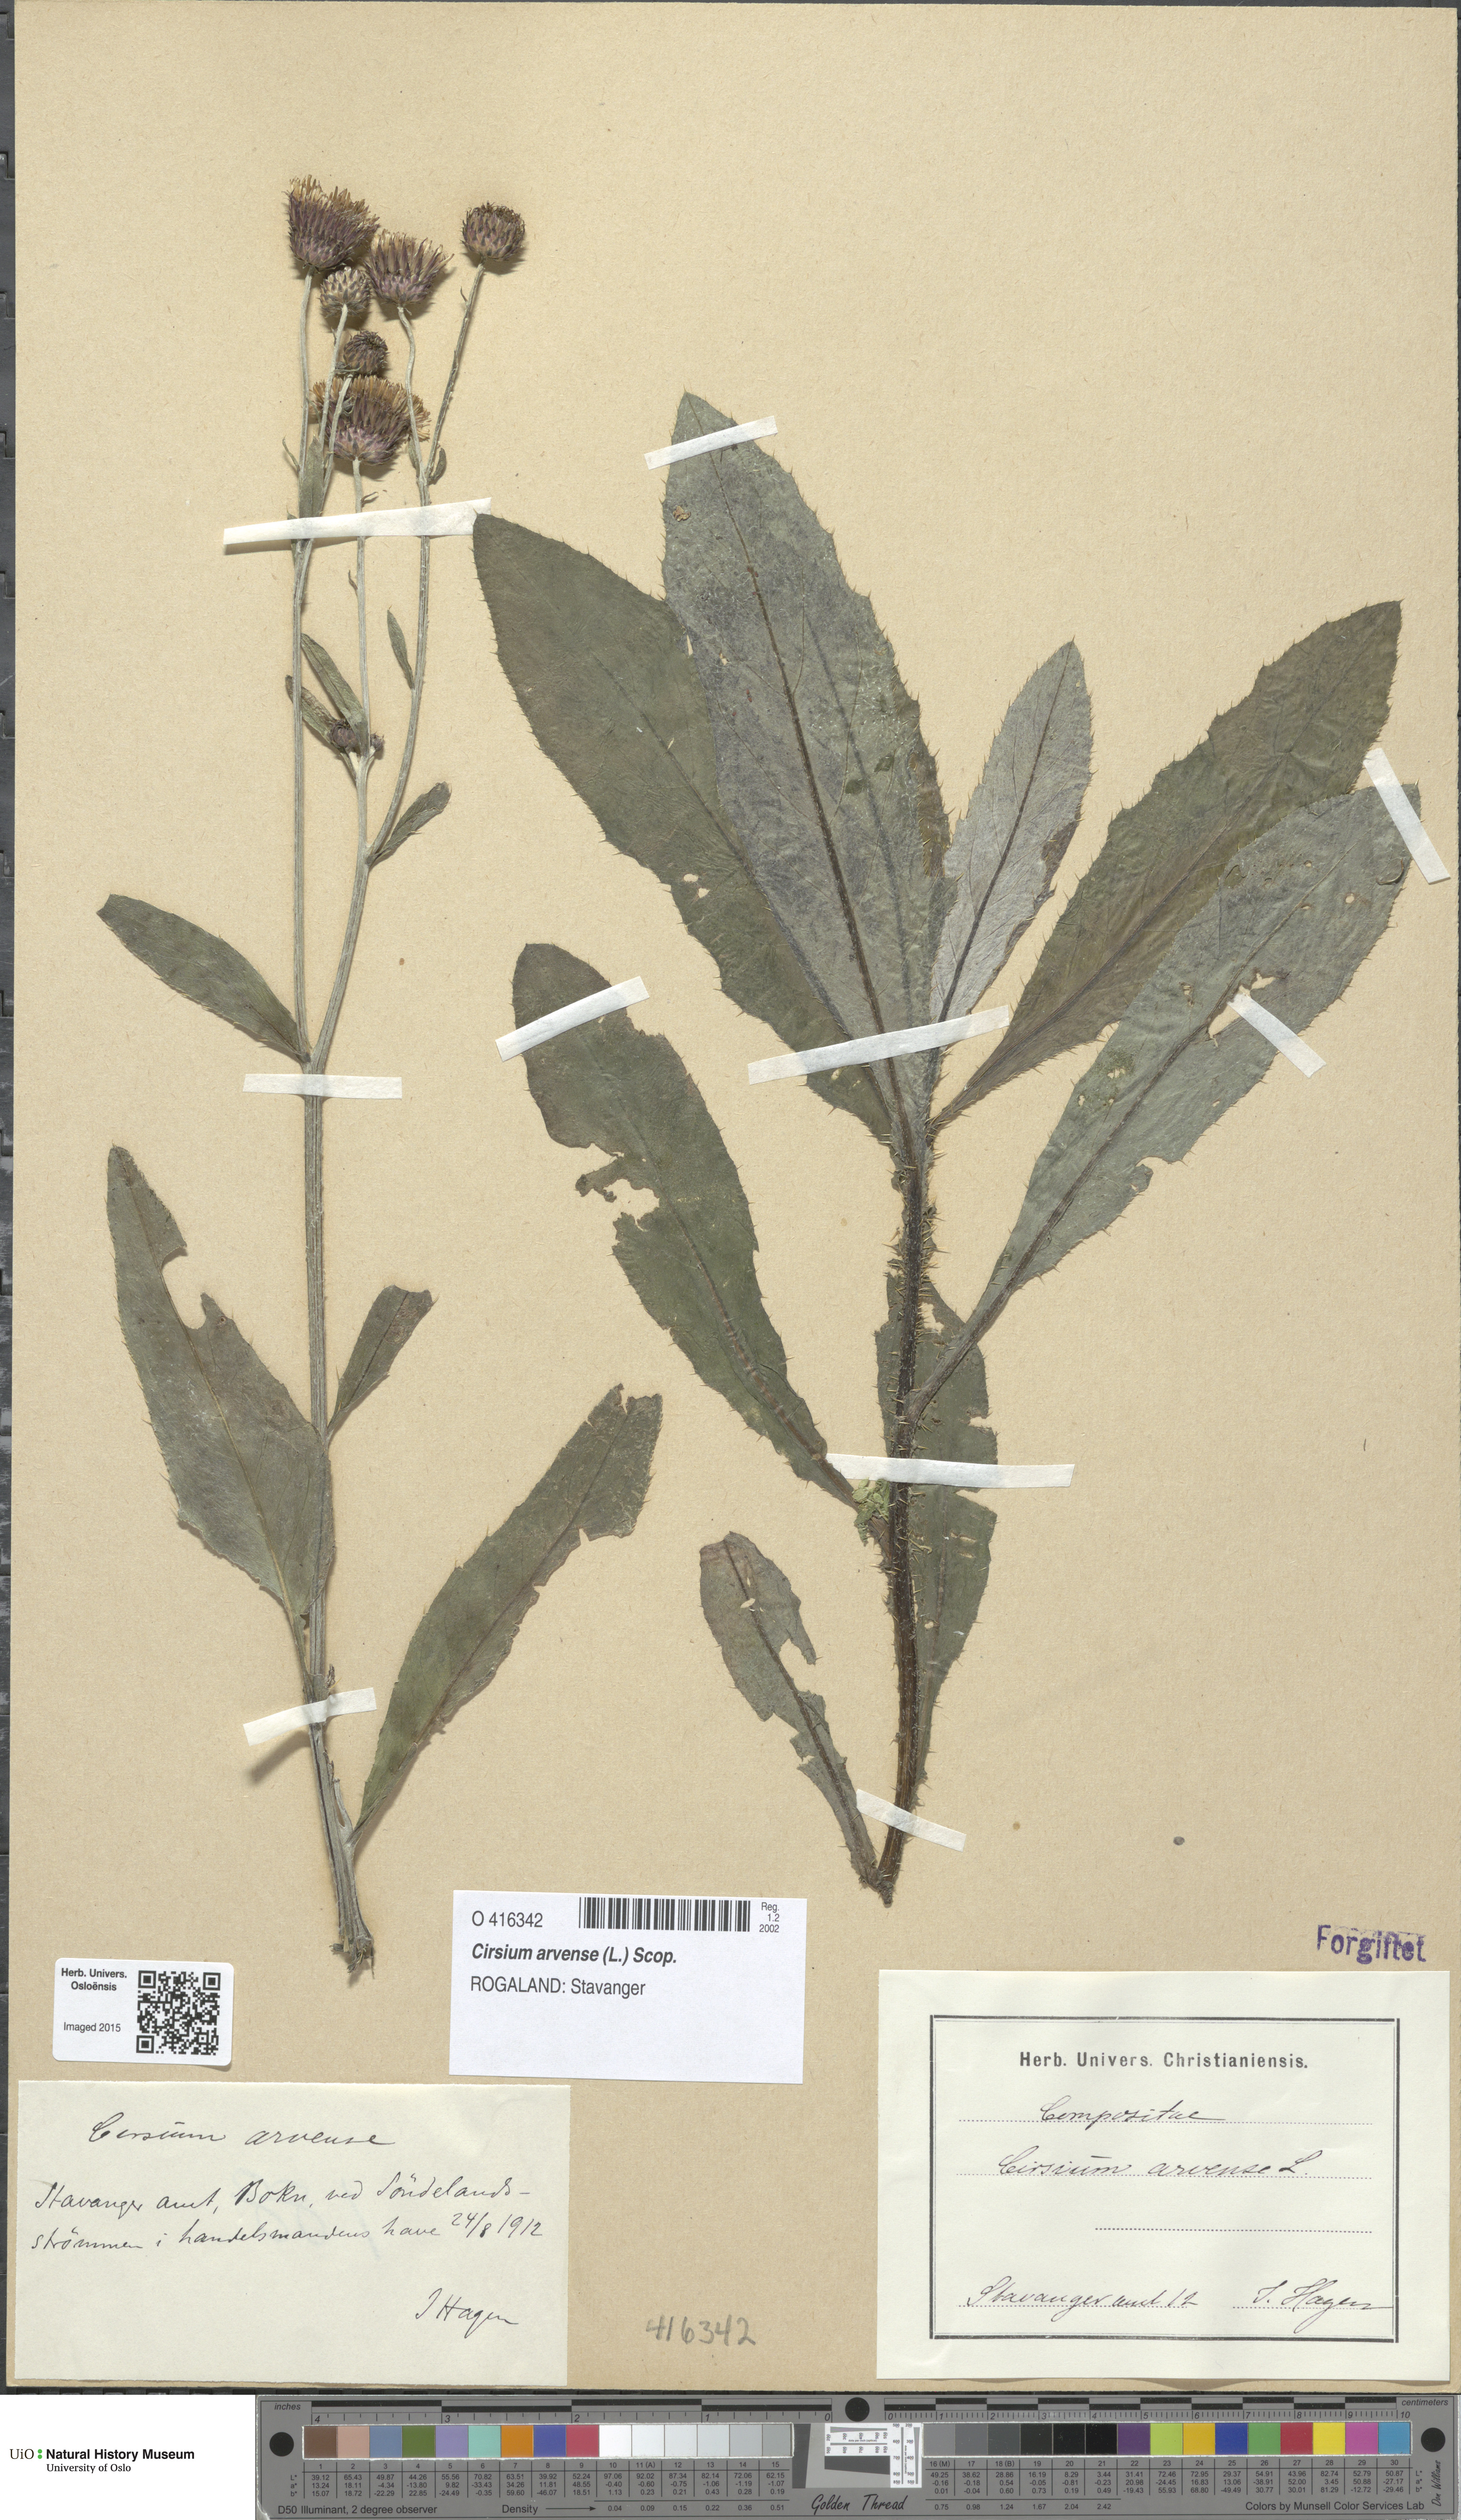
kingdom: Plantae
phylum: Tracheophyta
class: Magnoliopsida
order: Asterales
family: Asteraceae
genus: Cirsium
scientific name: Cirsium arvense
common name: Creeping thistle
